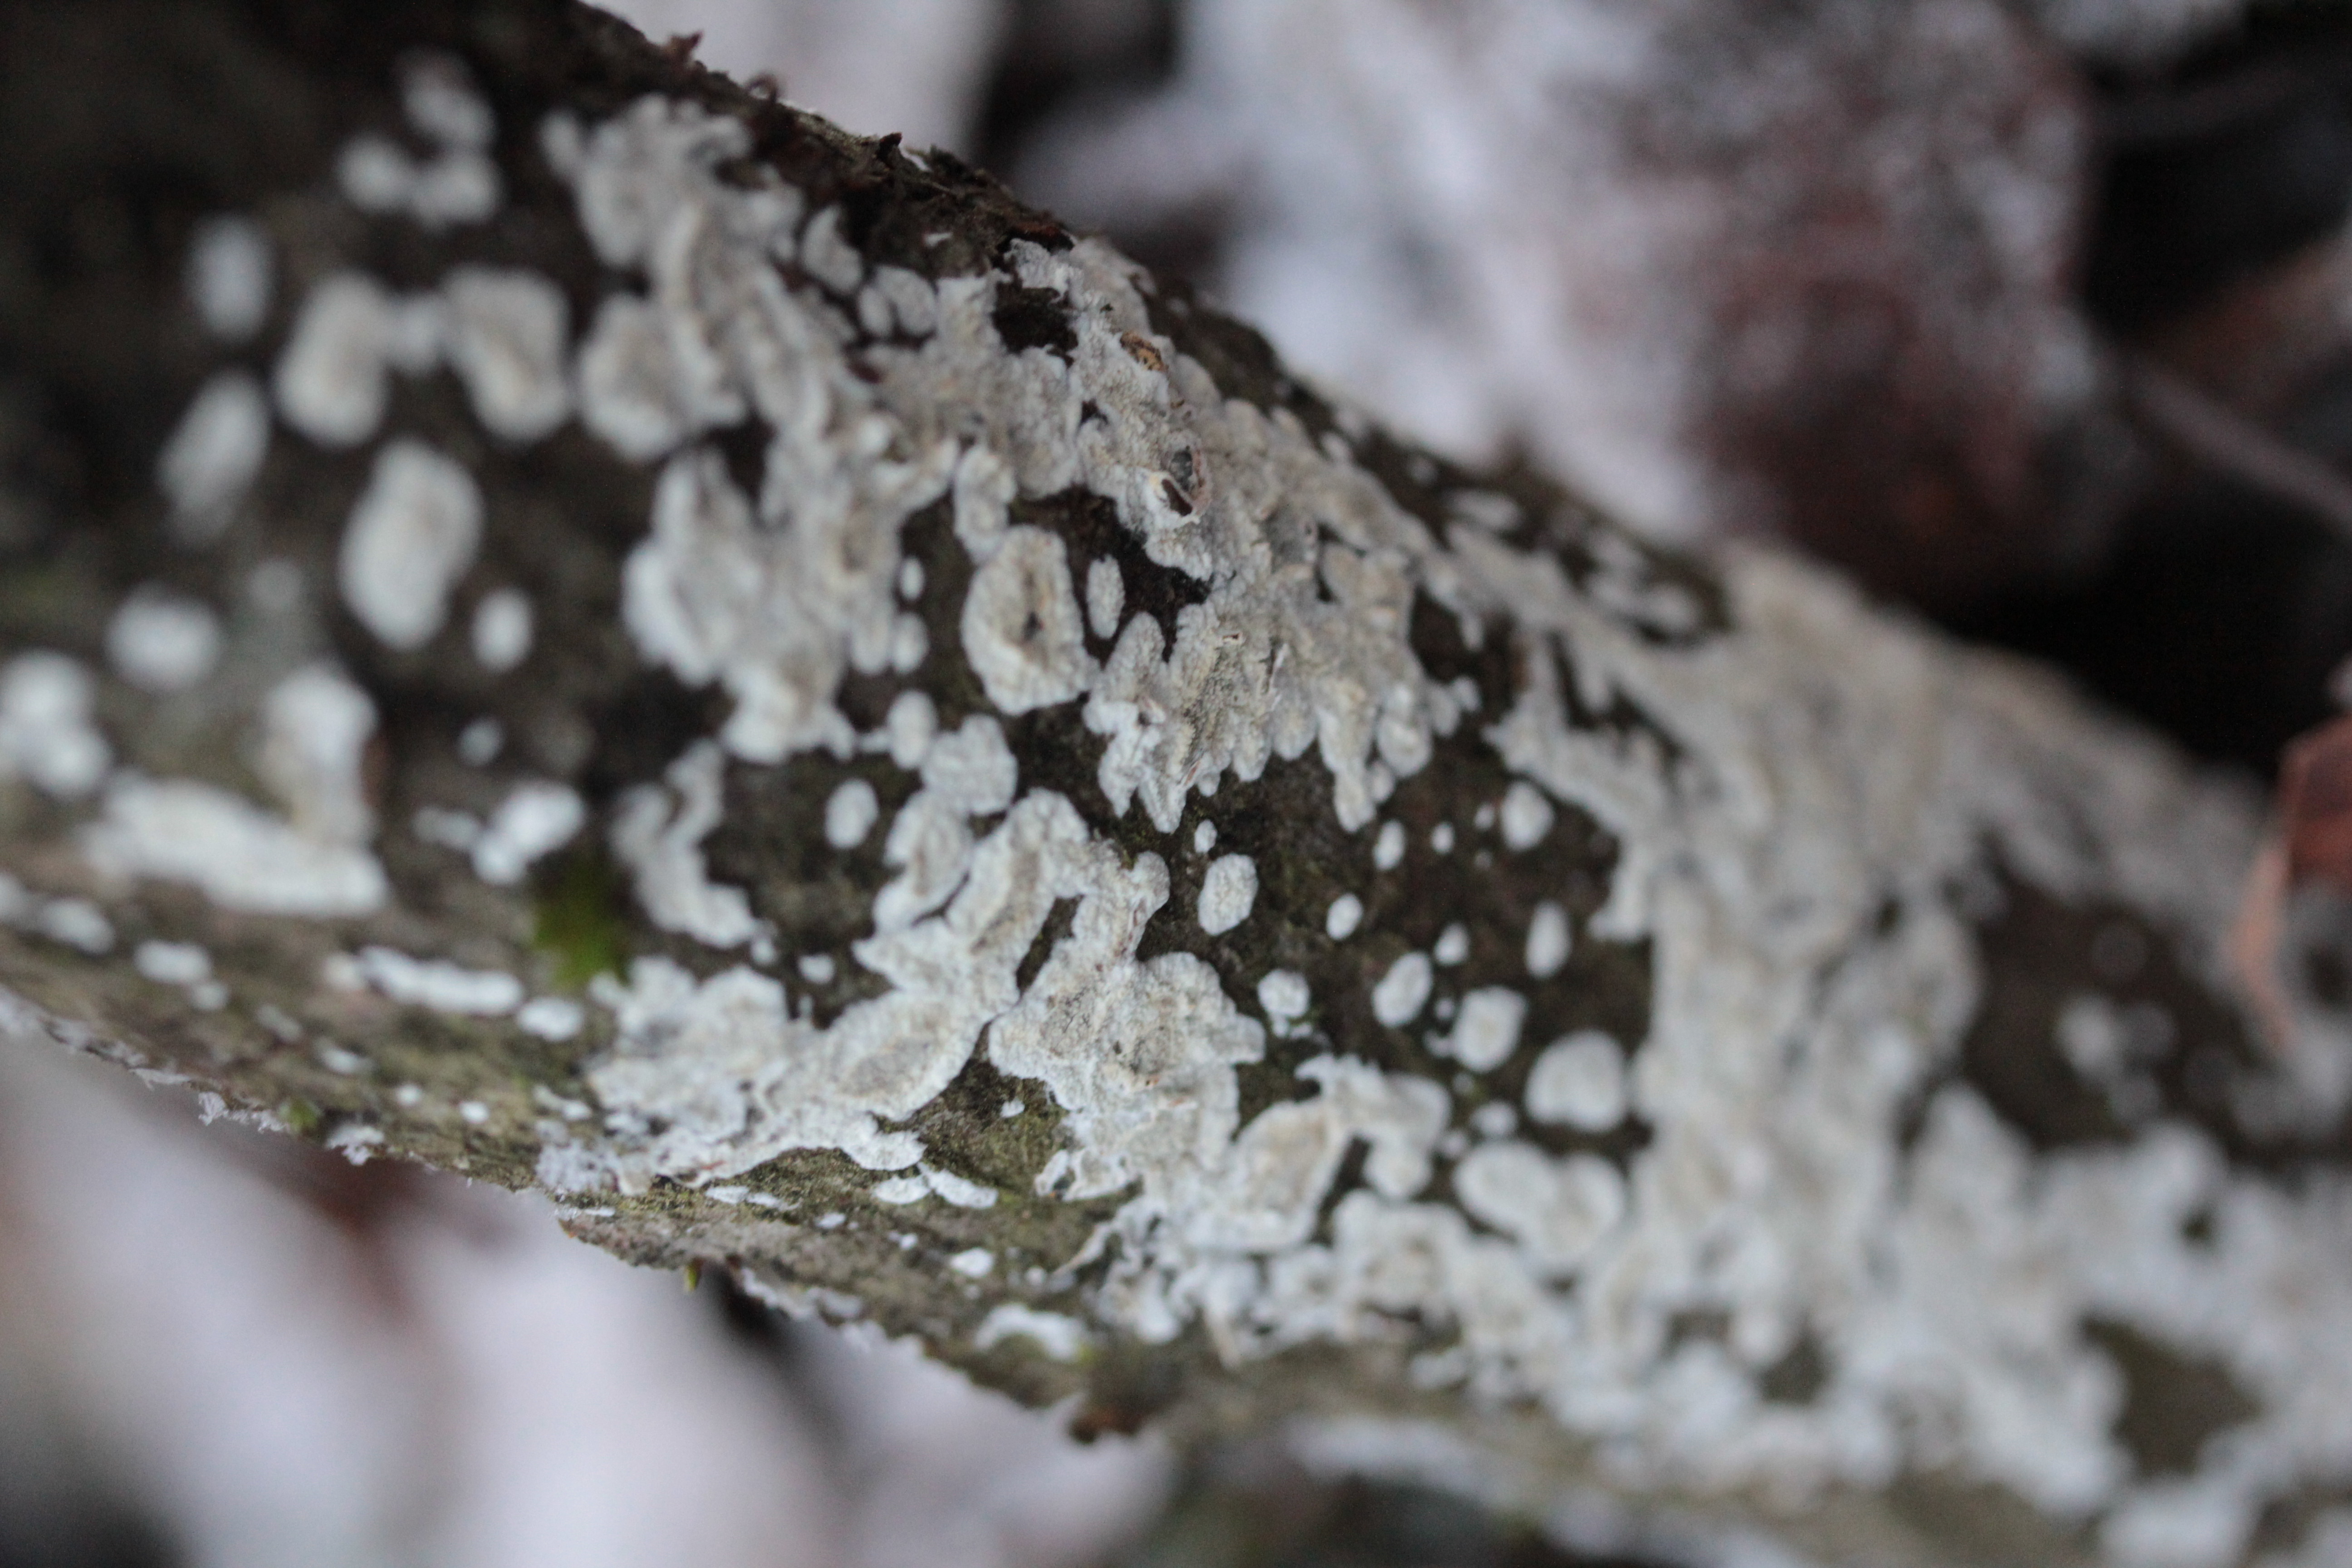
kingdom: Fungi
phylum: Basidiomycota
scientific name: Basidiomycota
